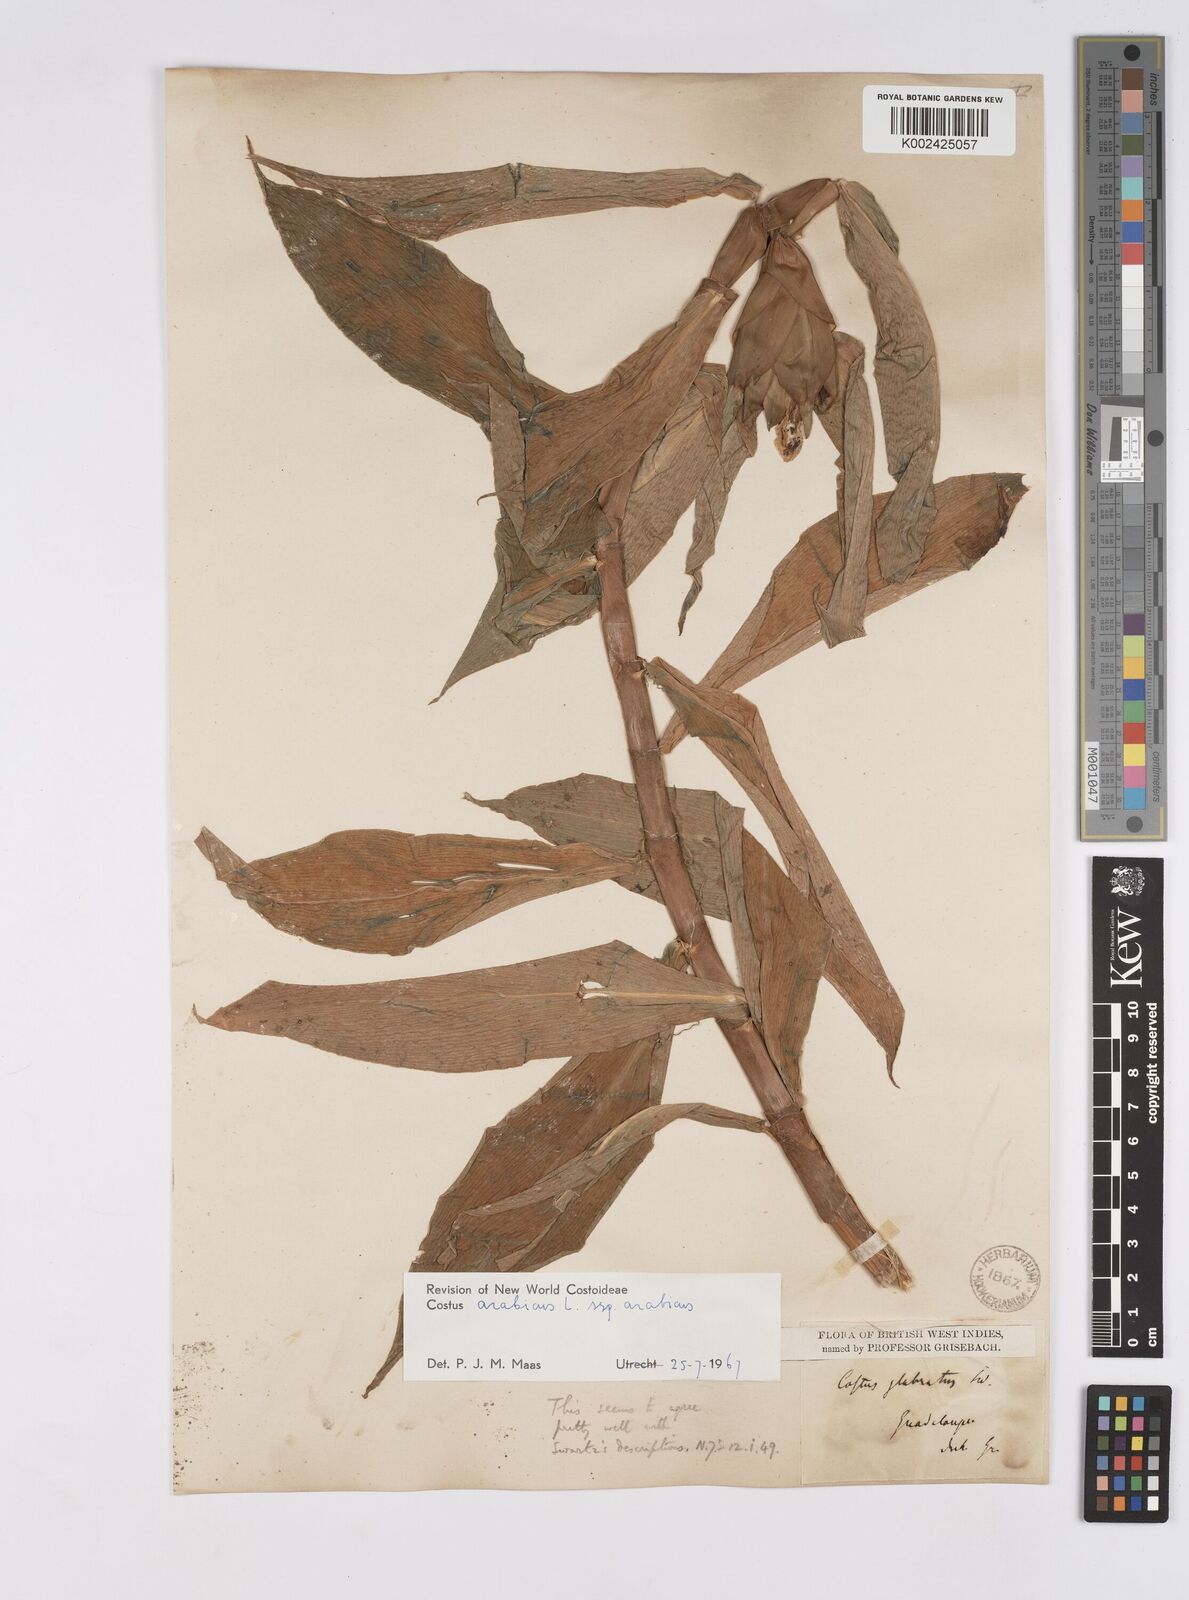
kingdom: Plantae
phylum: Tracheophyta
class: Liliopsida
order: Zingiberales
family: Costaceae
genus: Costus
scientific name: Costus arabicus
